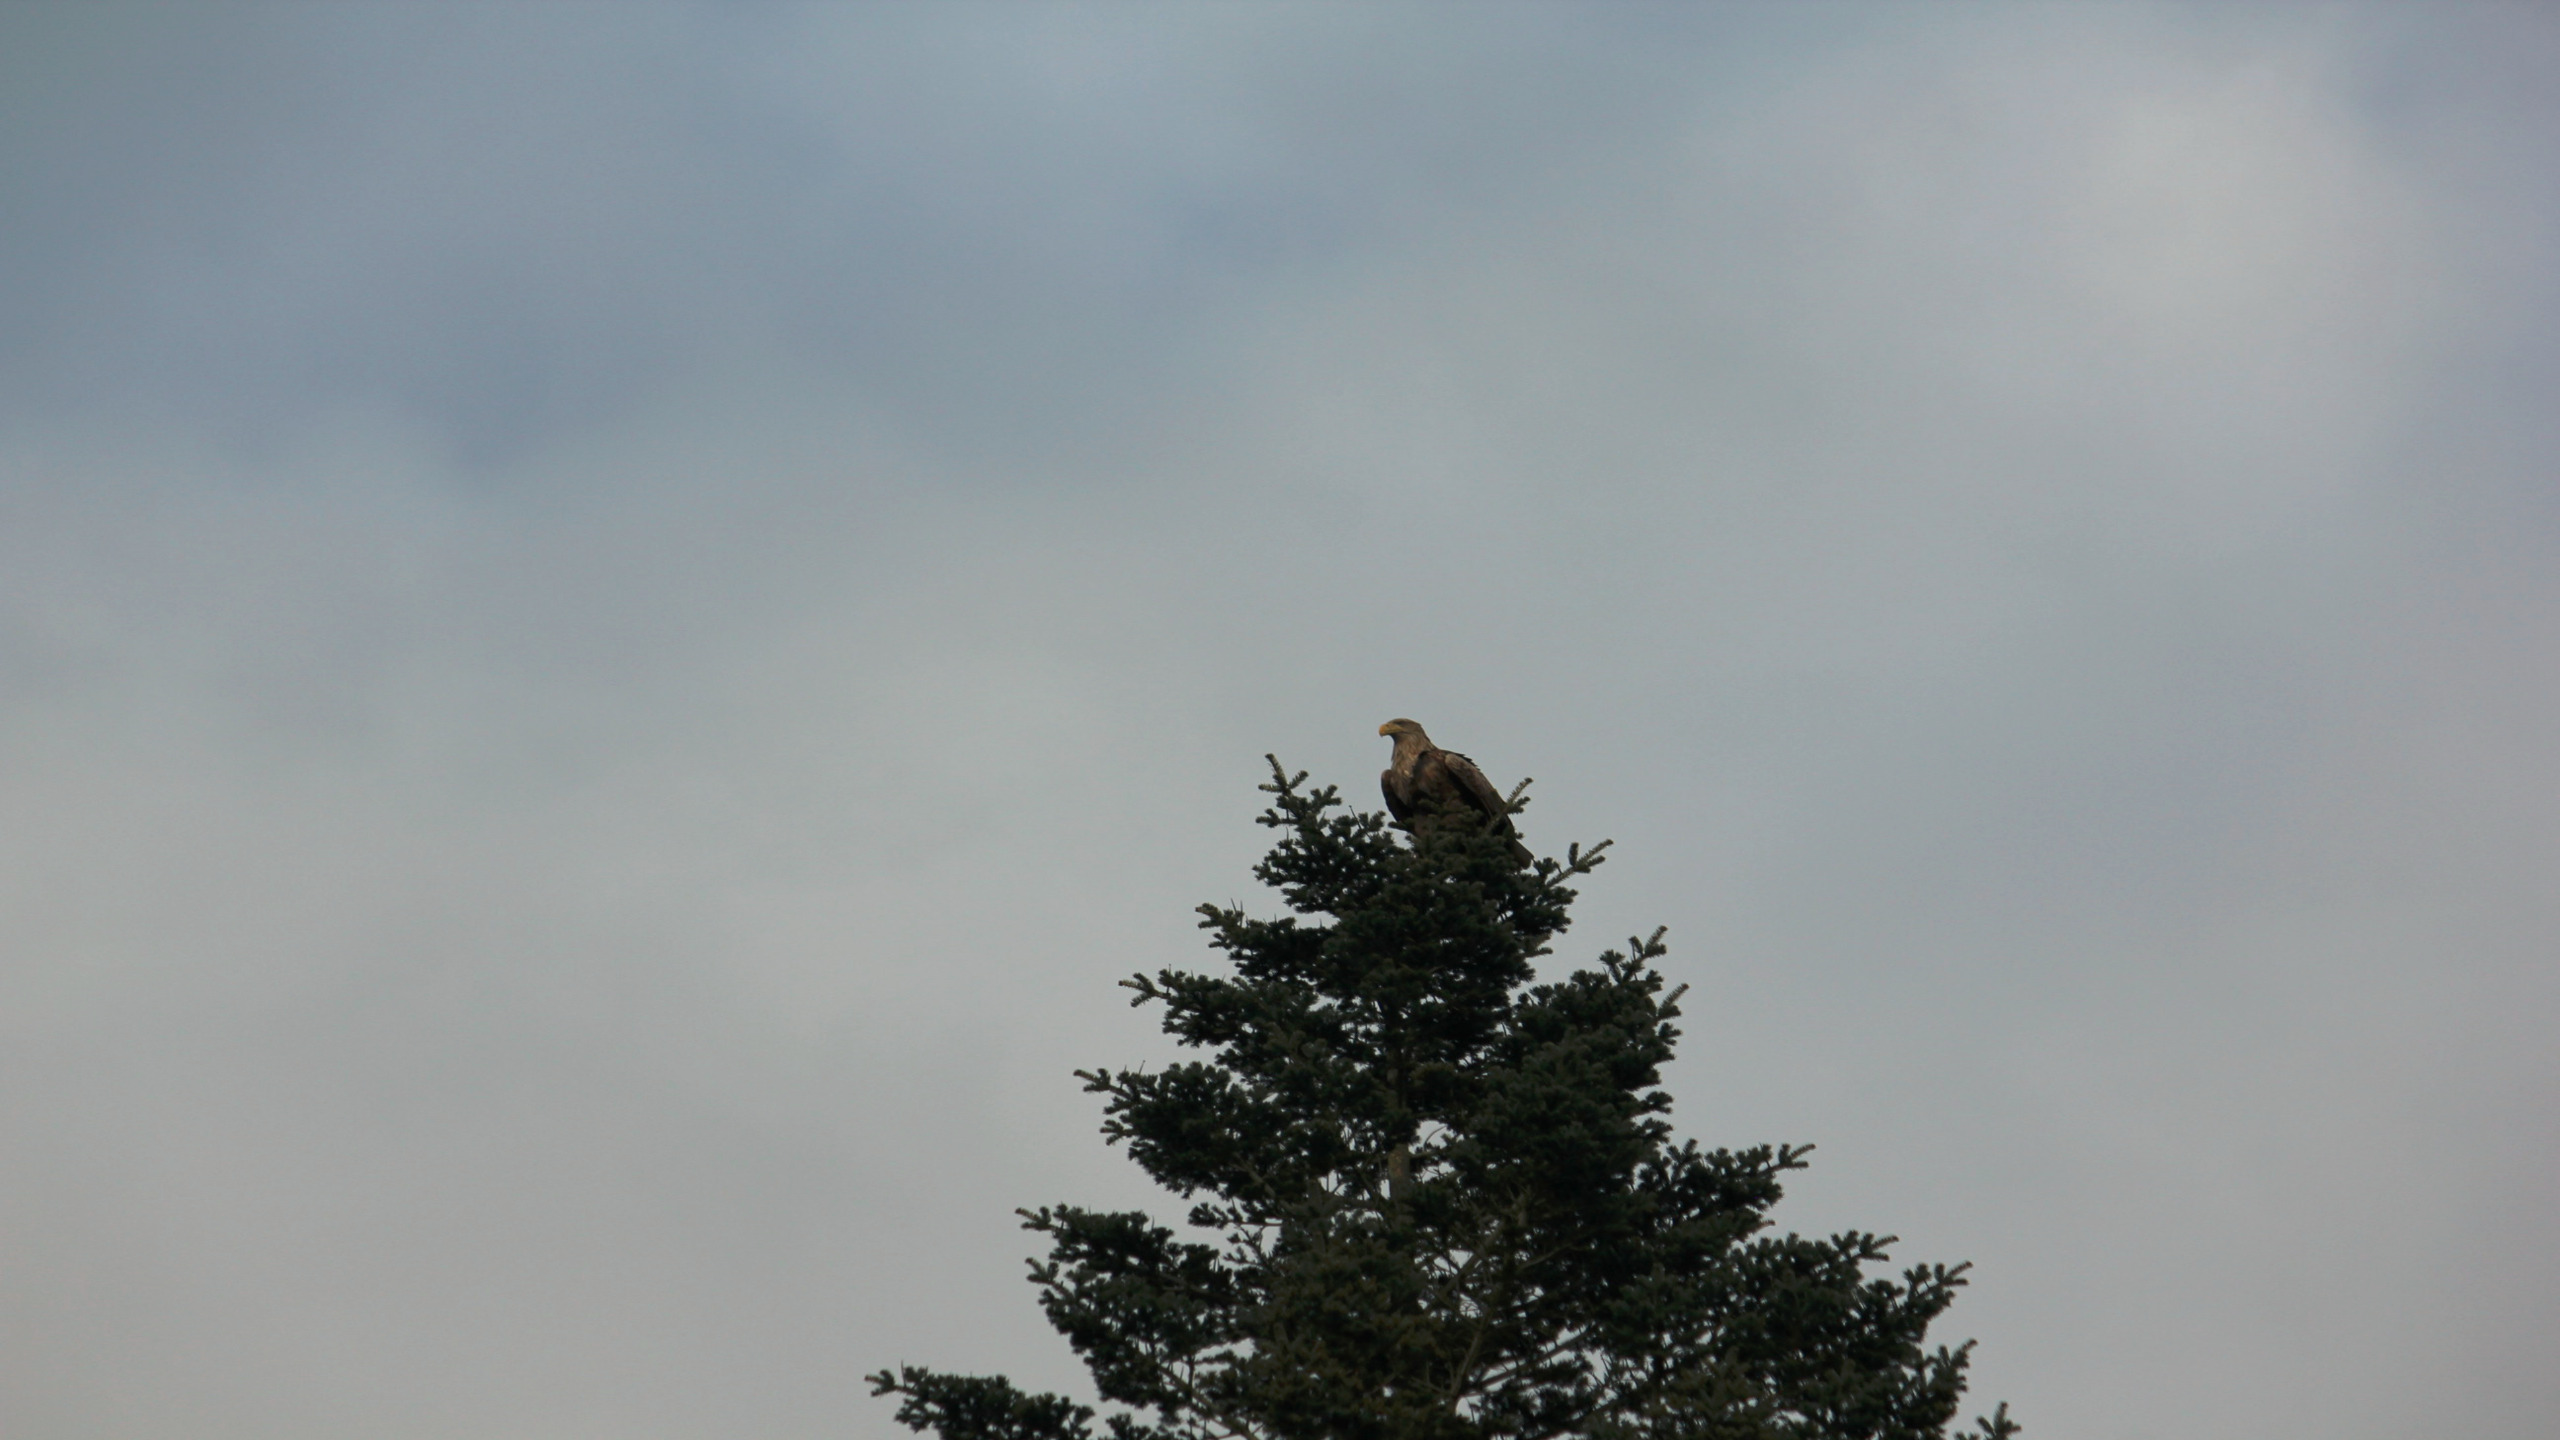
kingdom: Animalia
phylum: Chordata
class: Aves
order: Accipitriformes
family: Accipitridae
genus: Haliaeetus
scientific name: Haliaeetus albicilla
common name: Havørn
